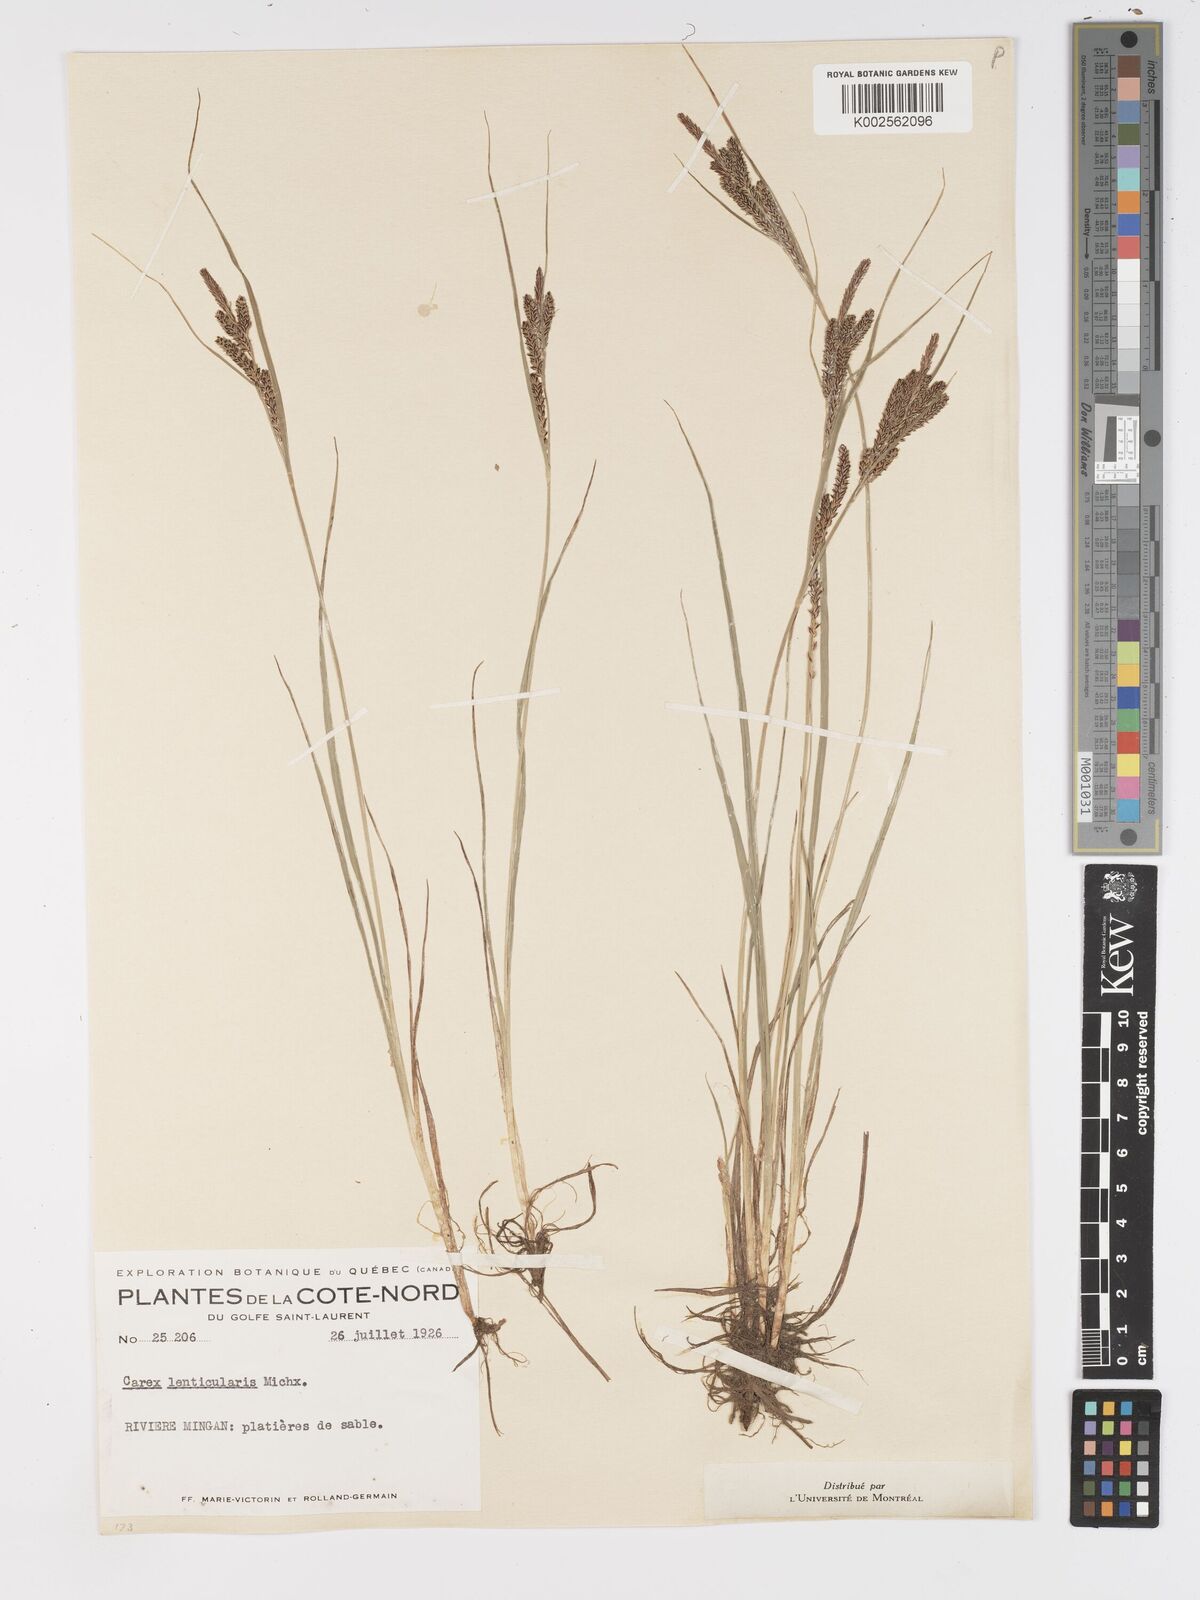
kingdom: Plantae
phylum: Tracheophyta
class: Liliopsida
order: Poales
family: Cyperaceae
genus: Carex
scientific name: Carex lenticularis
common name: Lakeshore sedge
